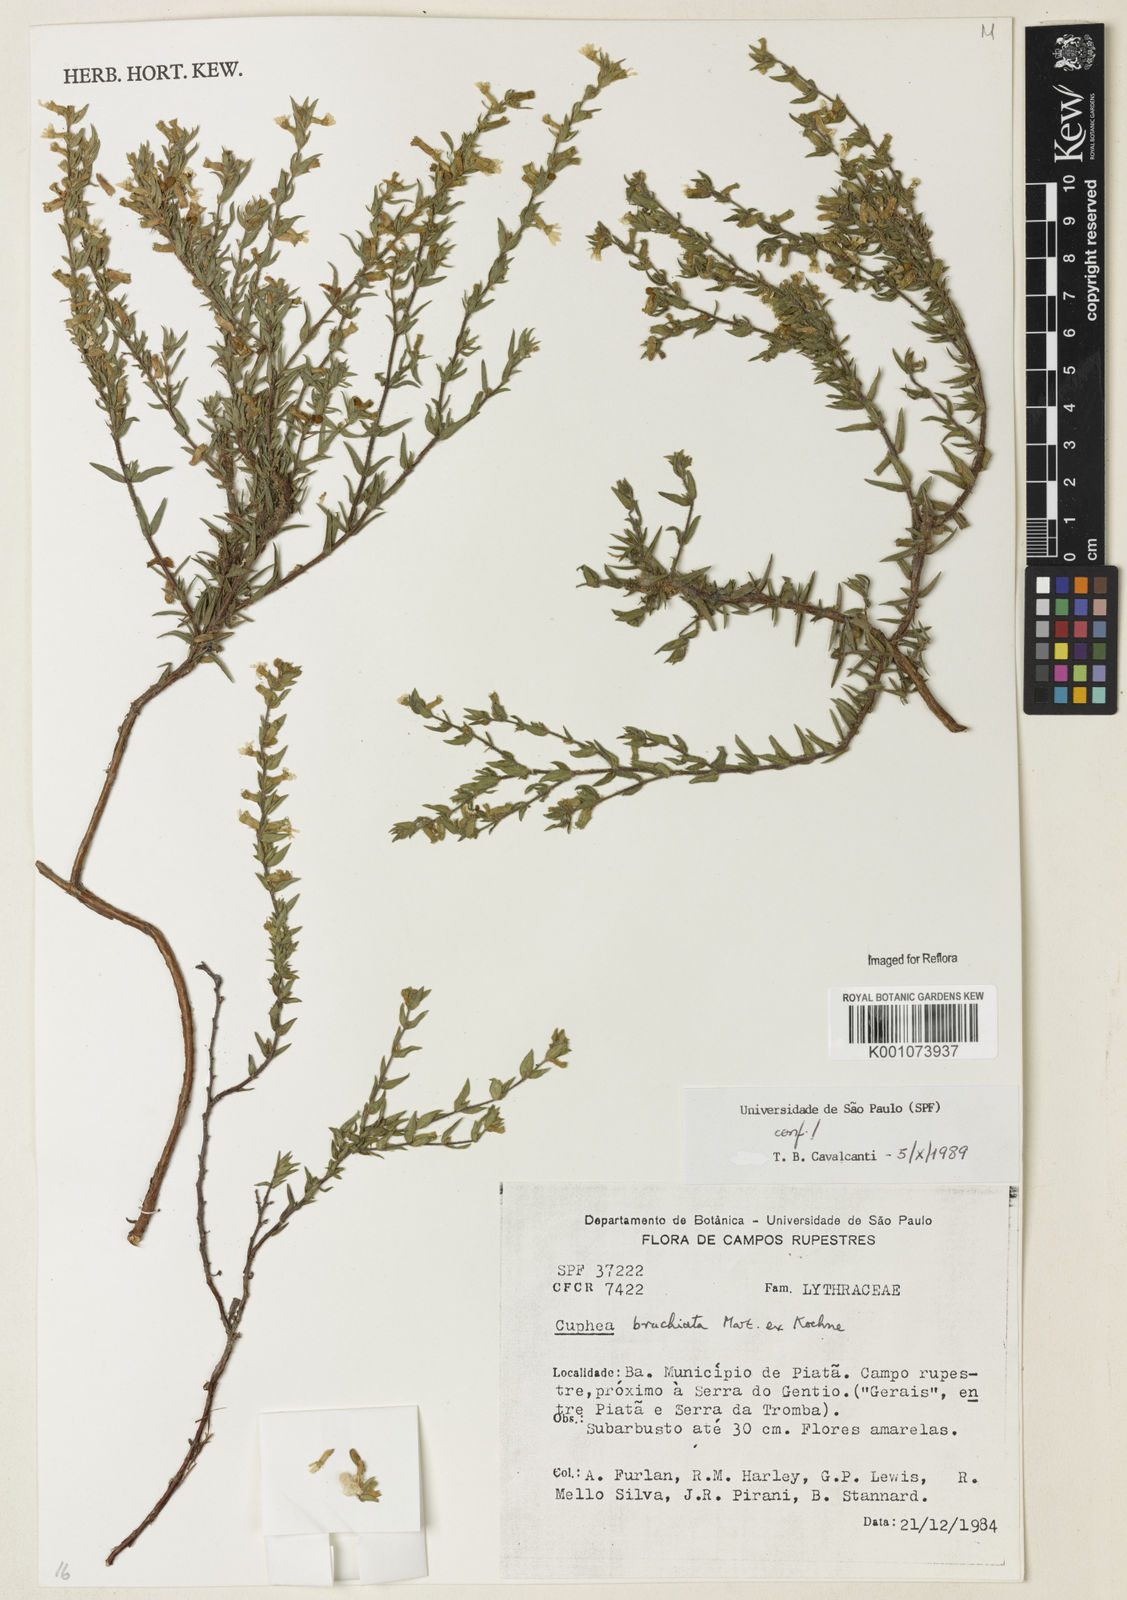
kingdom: Plantae
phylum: Tracheophyta
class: Magnoliopsida
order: Myrtales
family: Lythraceae
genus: Cuphea
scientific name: Cuphea brachiata
